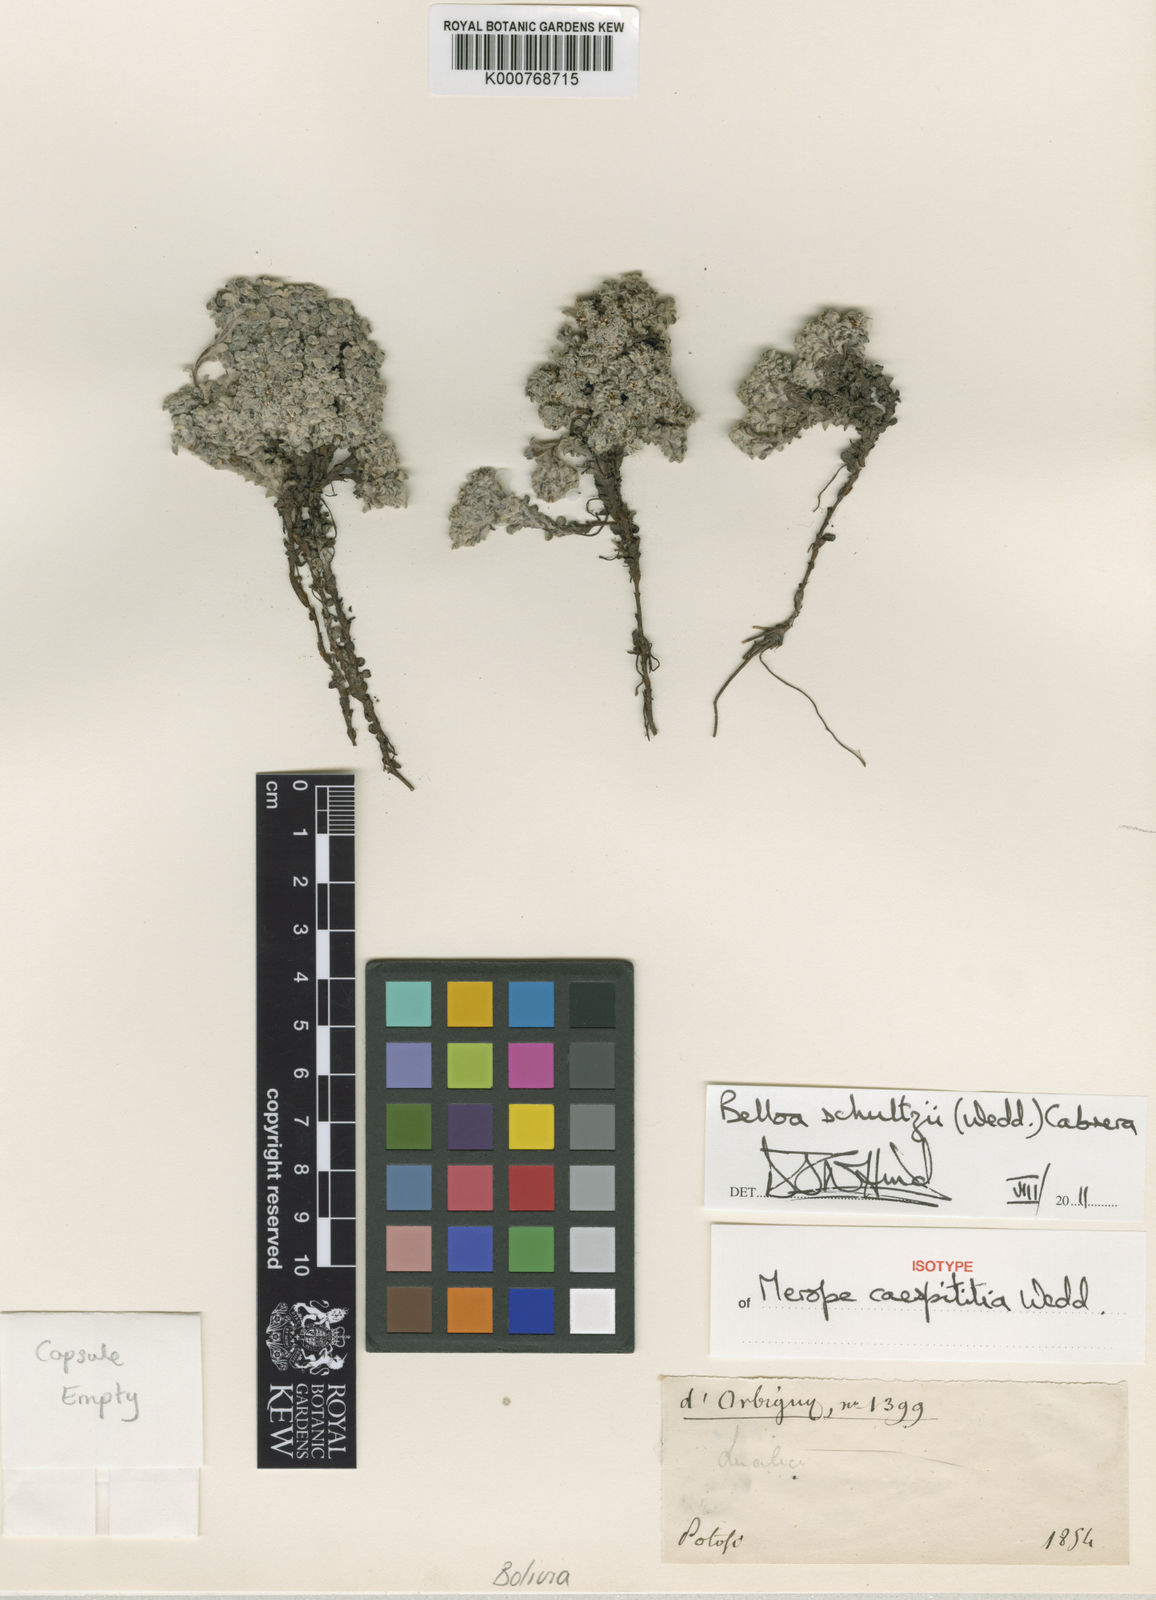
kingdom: Plantae
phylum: Tracheophyta
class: Magnoliopsida
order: Asterales
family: Asteraceae
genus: Mniodes
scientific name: Mniodes schultzii
